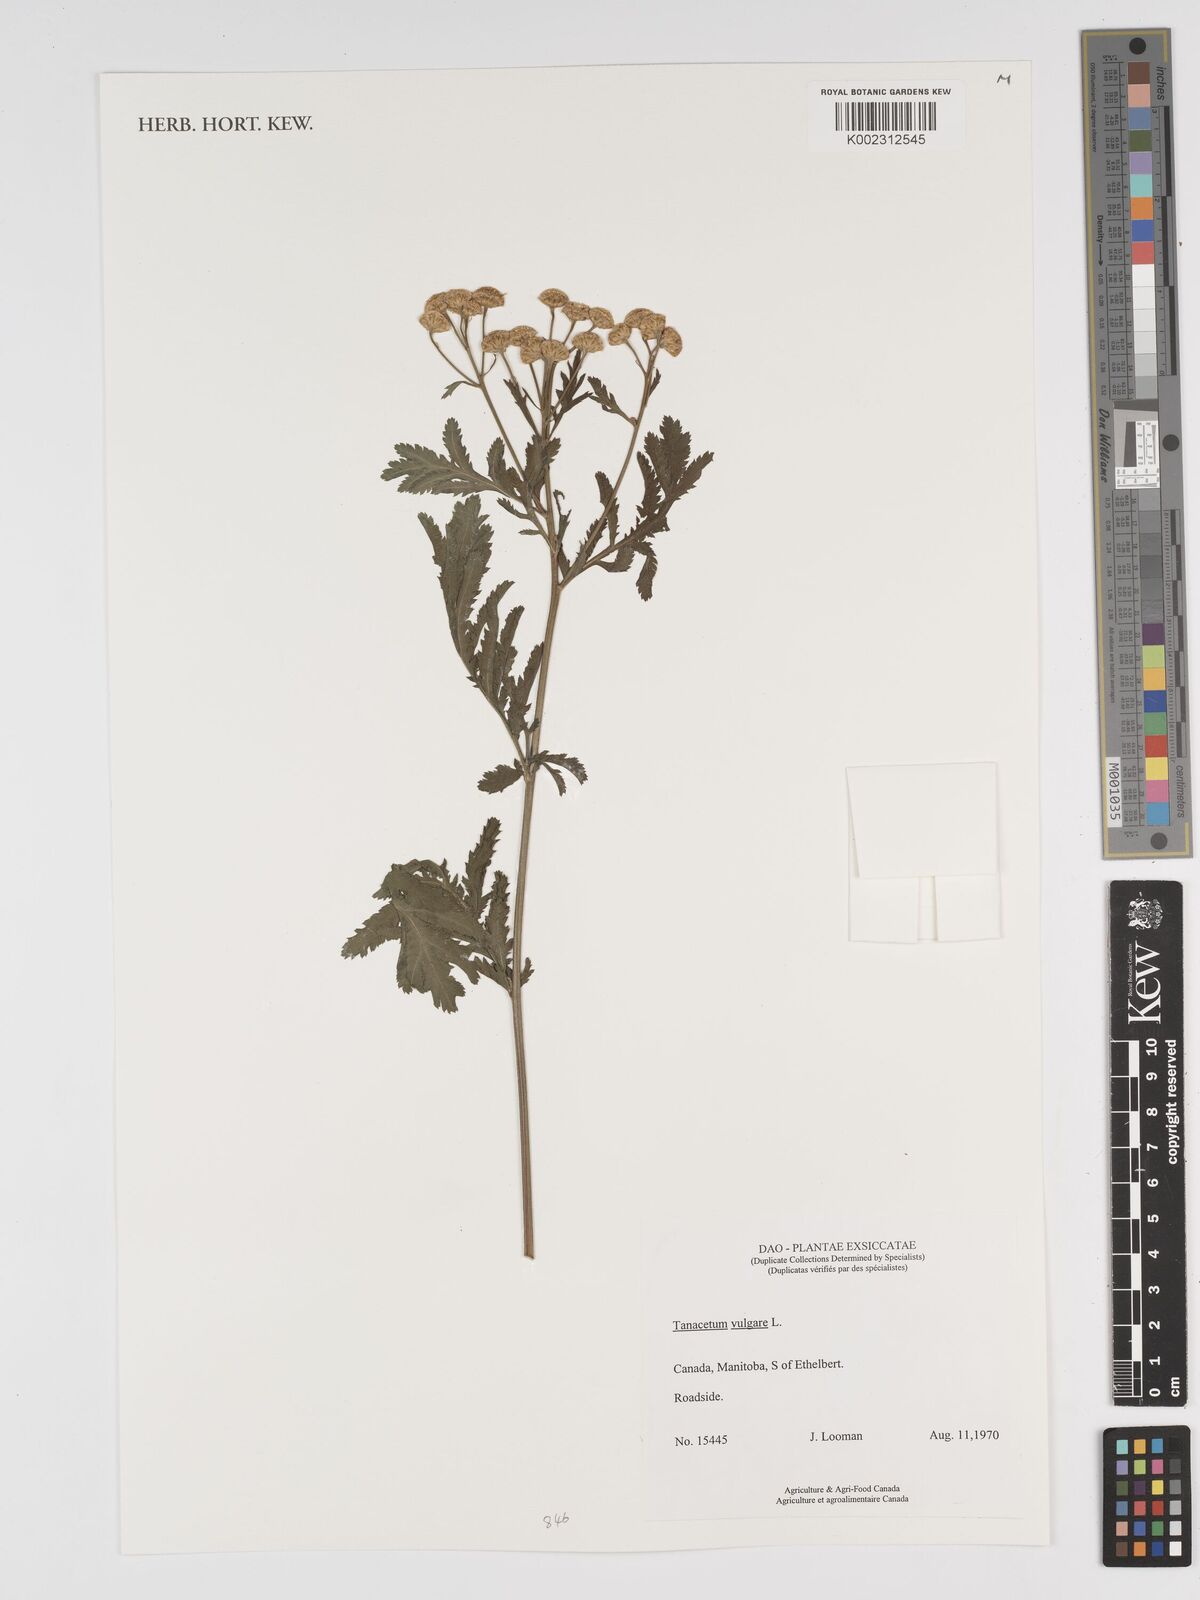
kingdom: Plantae
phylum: Tracheophyta
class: Magnoliopsida
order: Asterales
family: Asteraceae
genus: Tanacetum
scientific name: Tanacetum vulgare
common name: Common tansy
